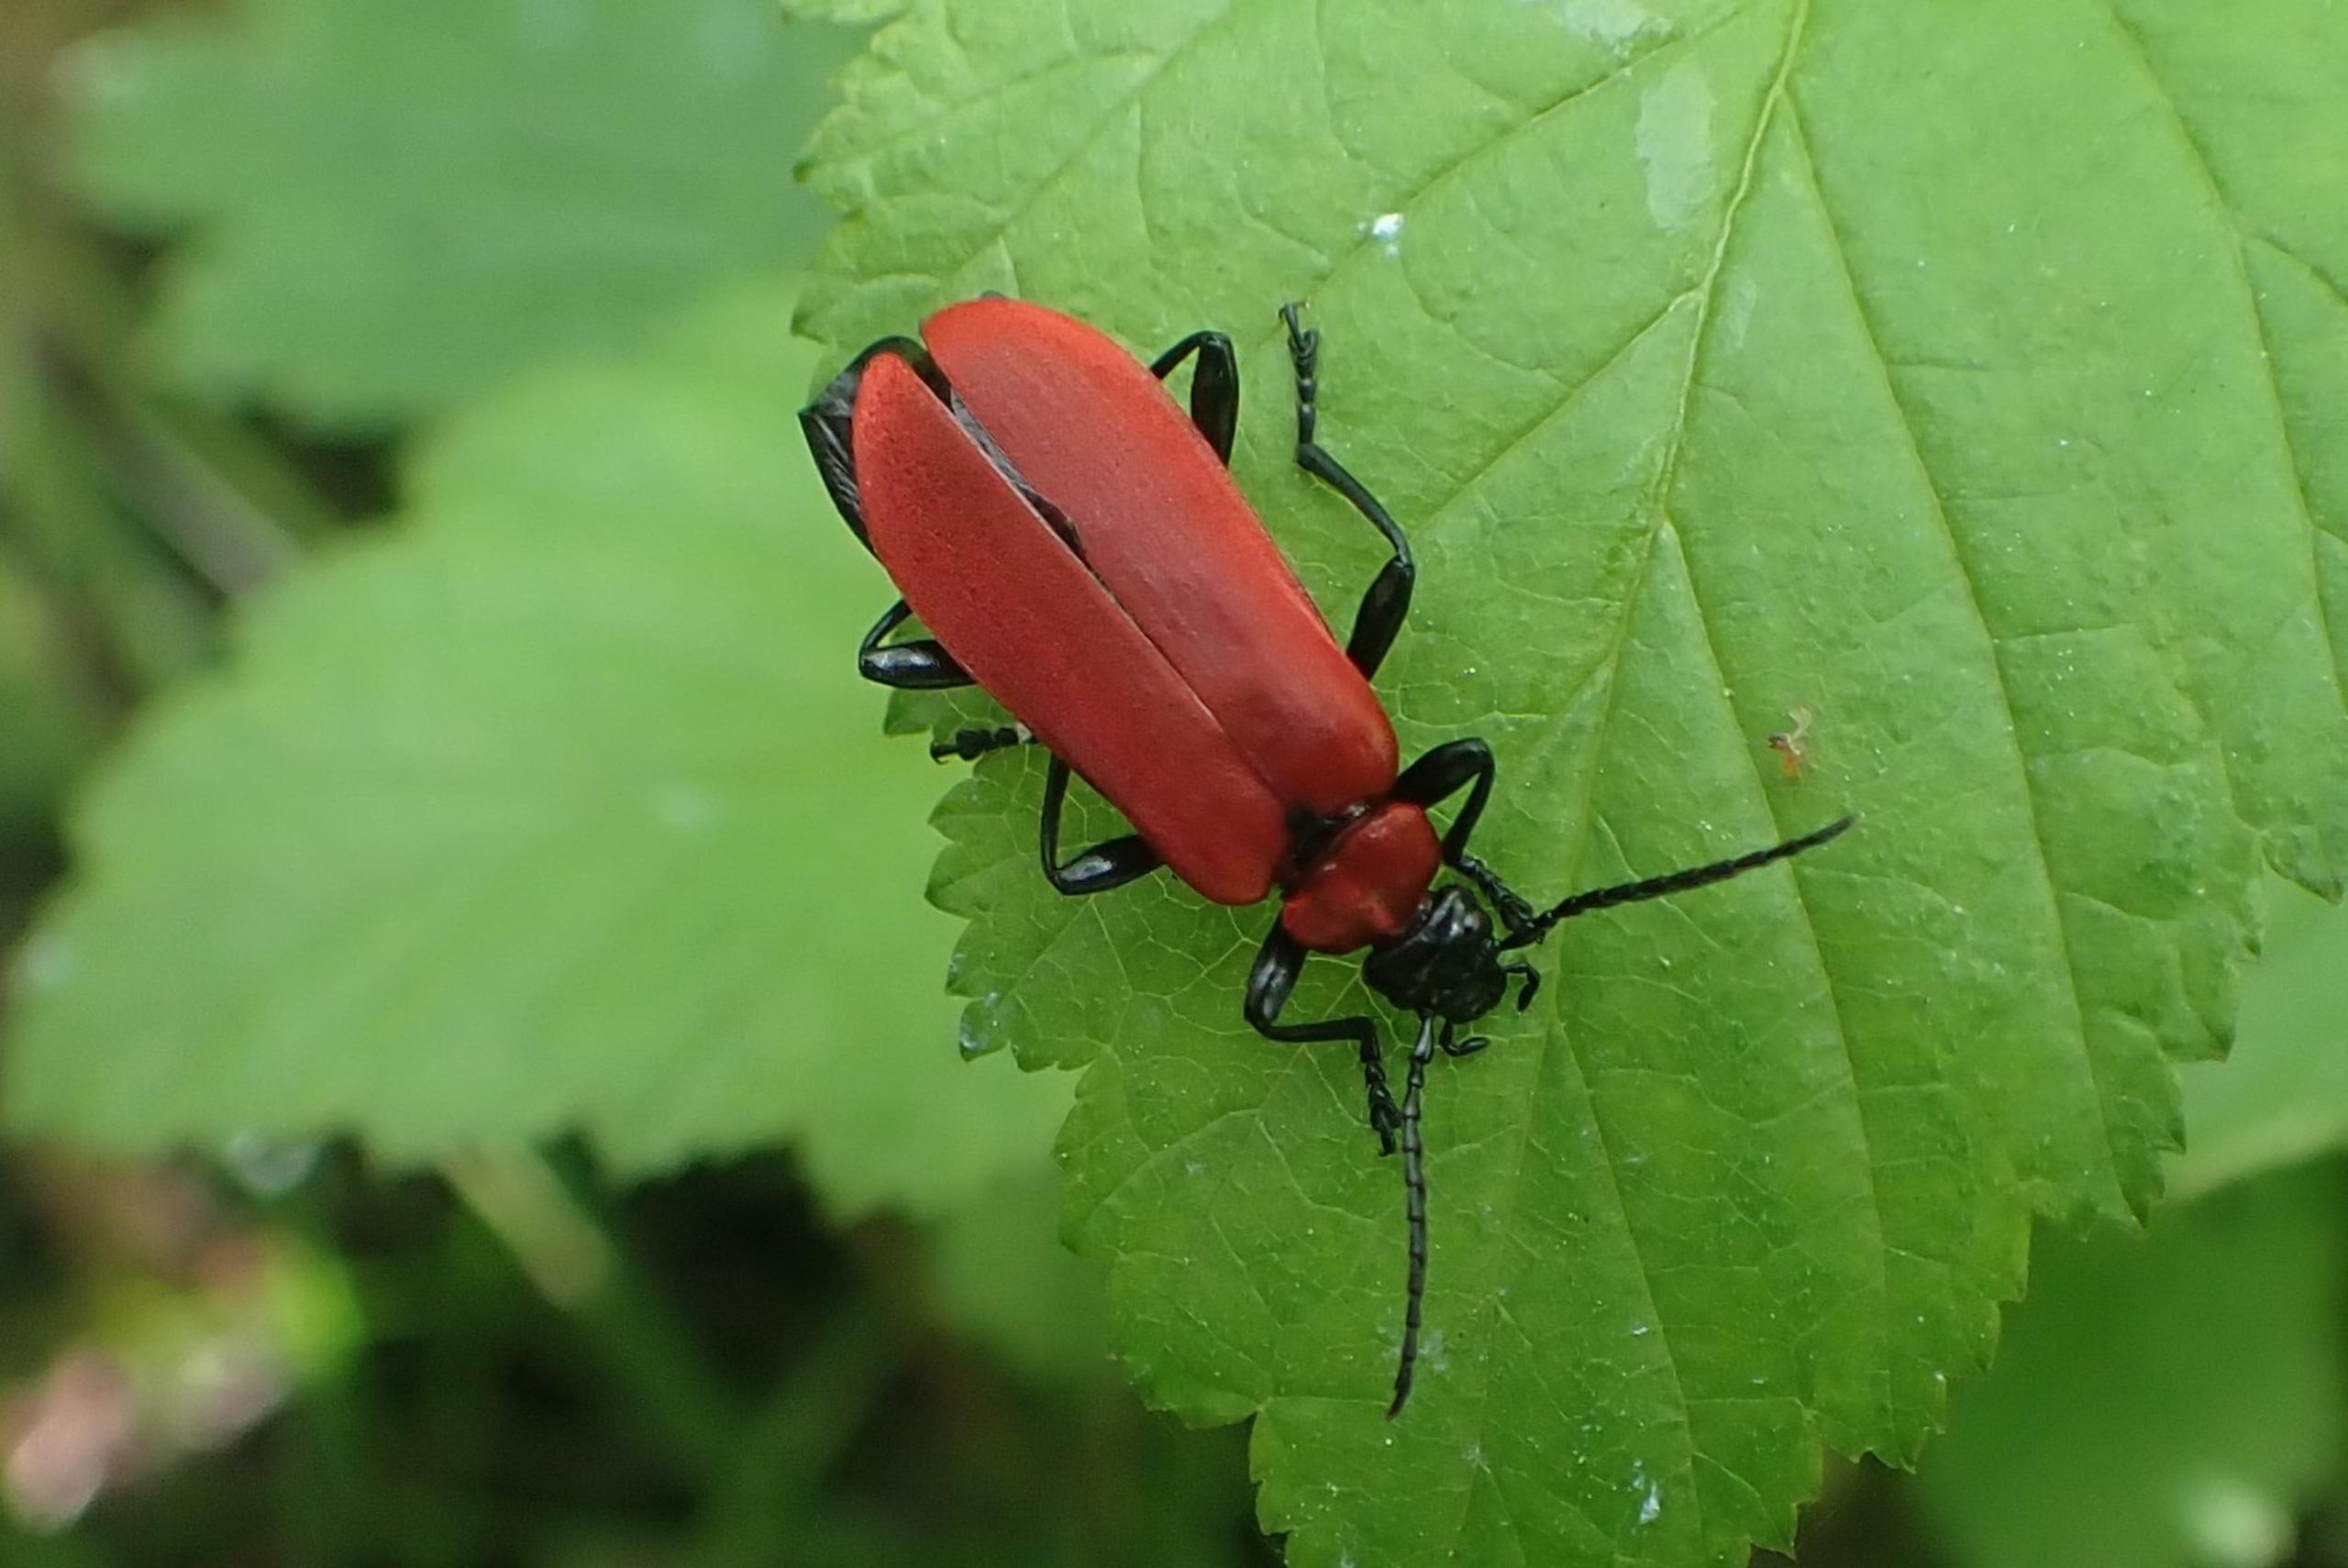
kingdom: Animalia
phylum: Arthropoda
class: Insecta
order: Coleoptera
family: Pyrochroidae
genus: Pyrochroa
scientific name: Pyrochroa coccinea
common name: Sorthovedet kardinalbille
